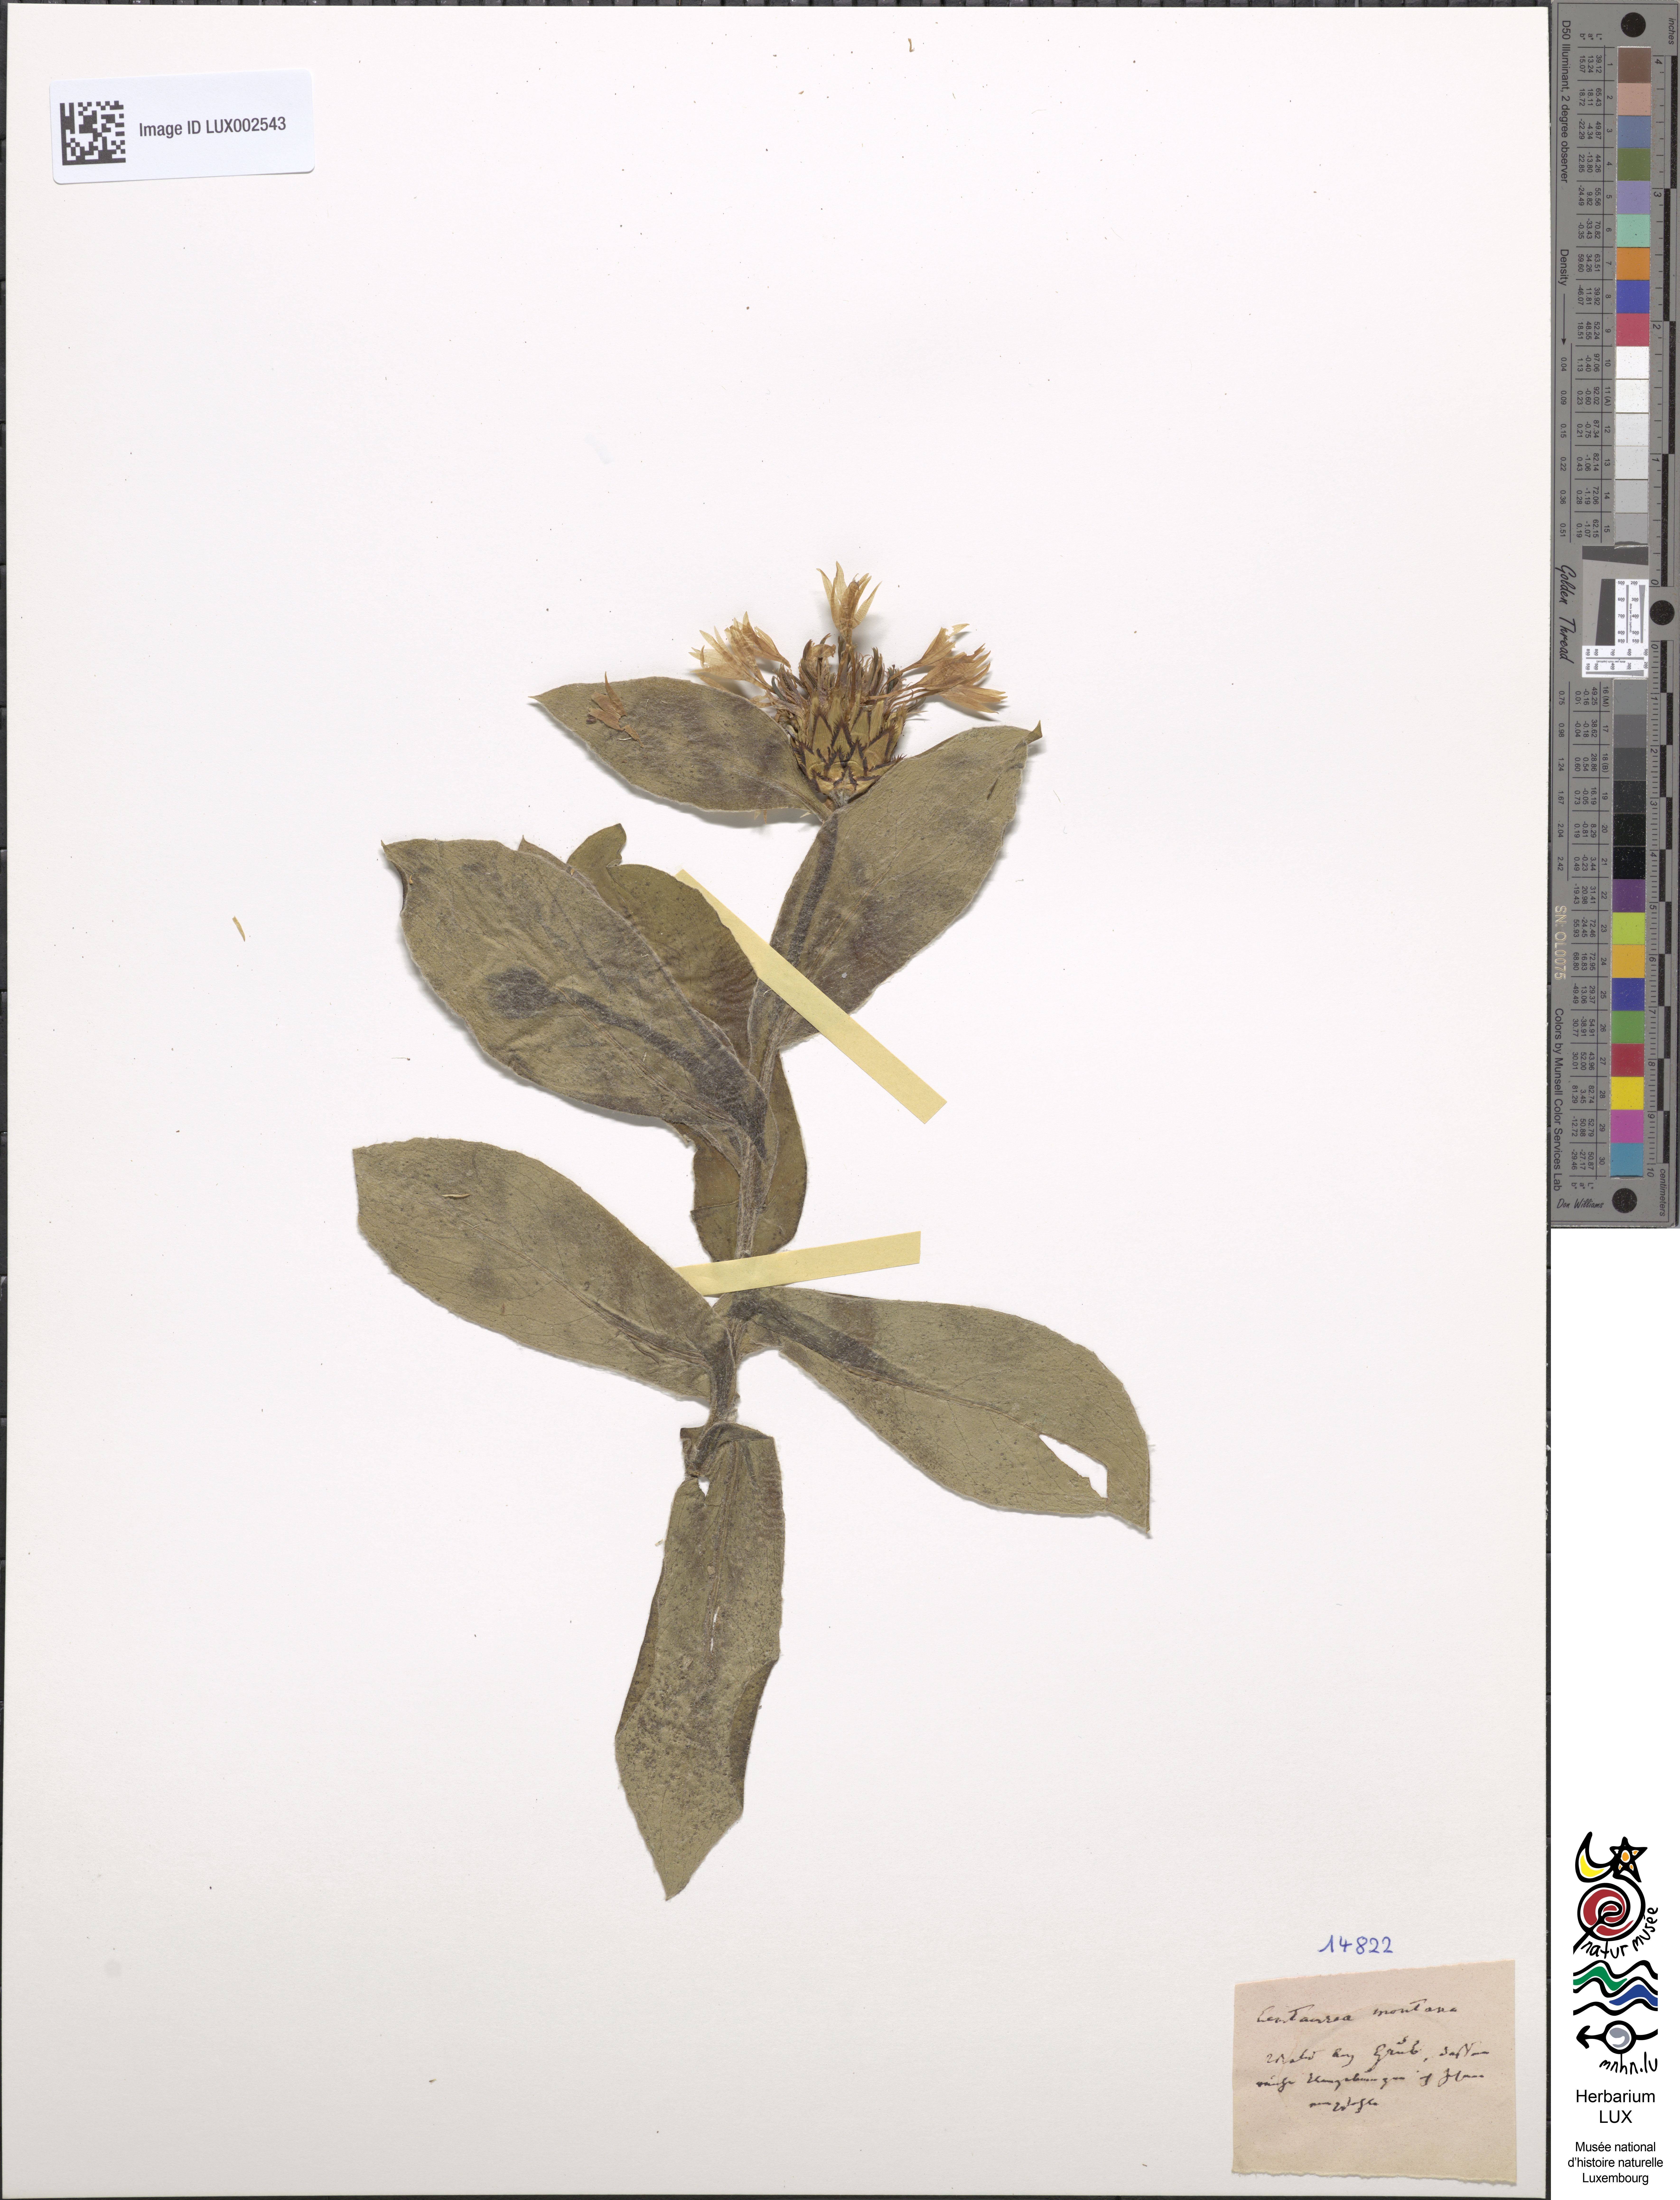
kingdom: Plantae
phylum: Tracheophyta
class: Magnoliopsida
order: Asterales
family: Asteraceae
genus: Centaurea
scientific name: Centaurea montana
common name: Perennial cornflower
